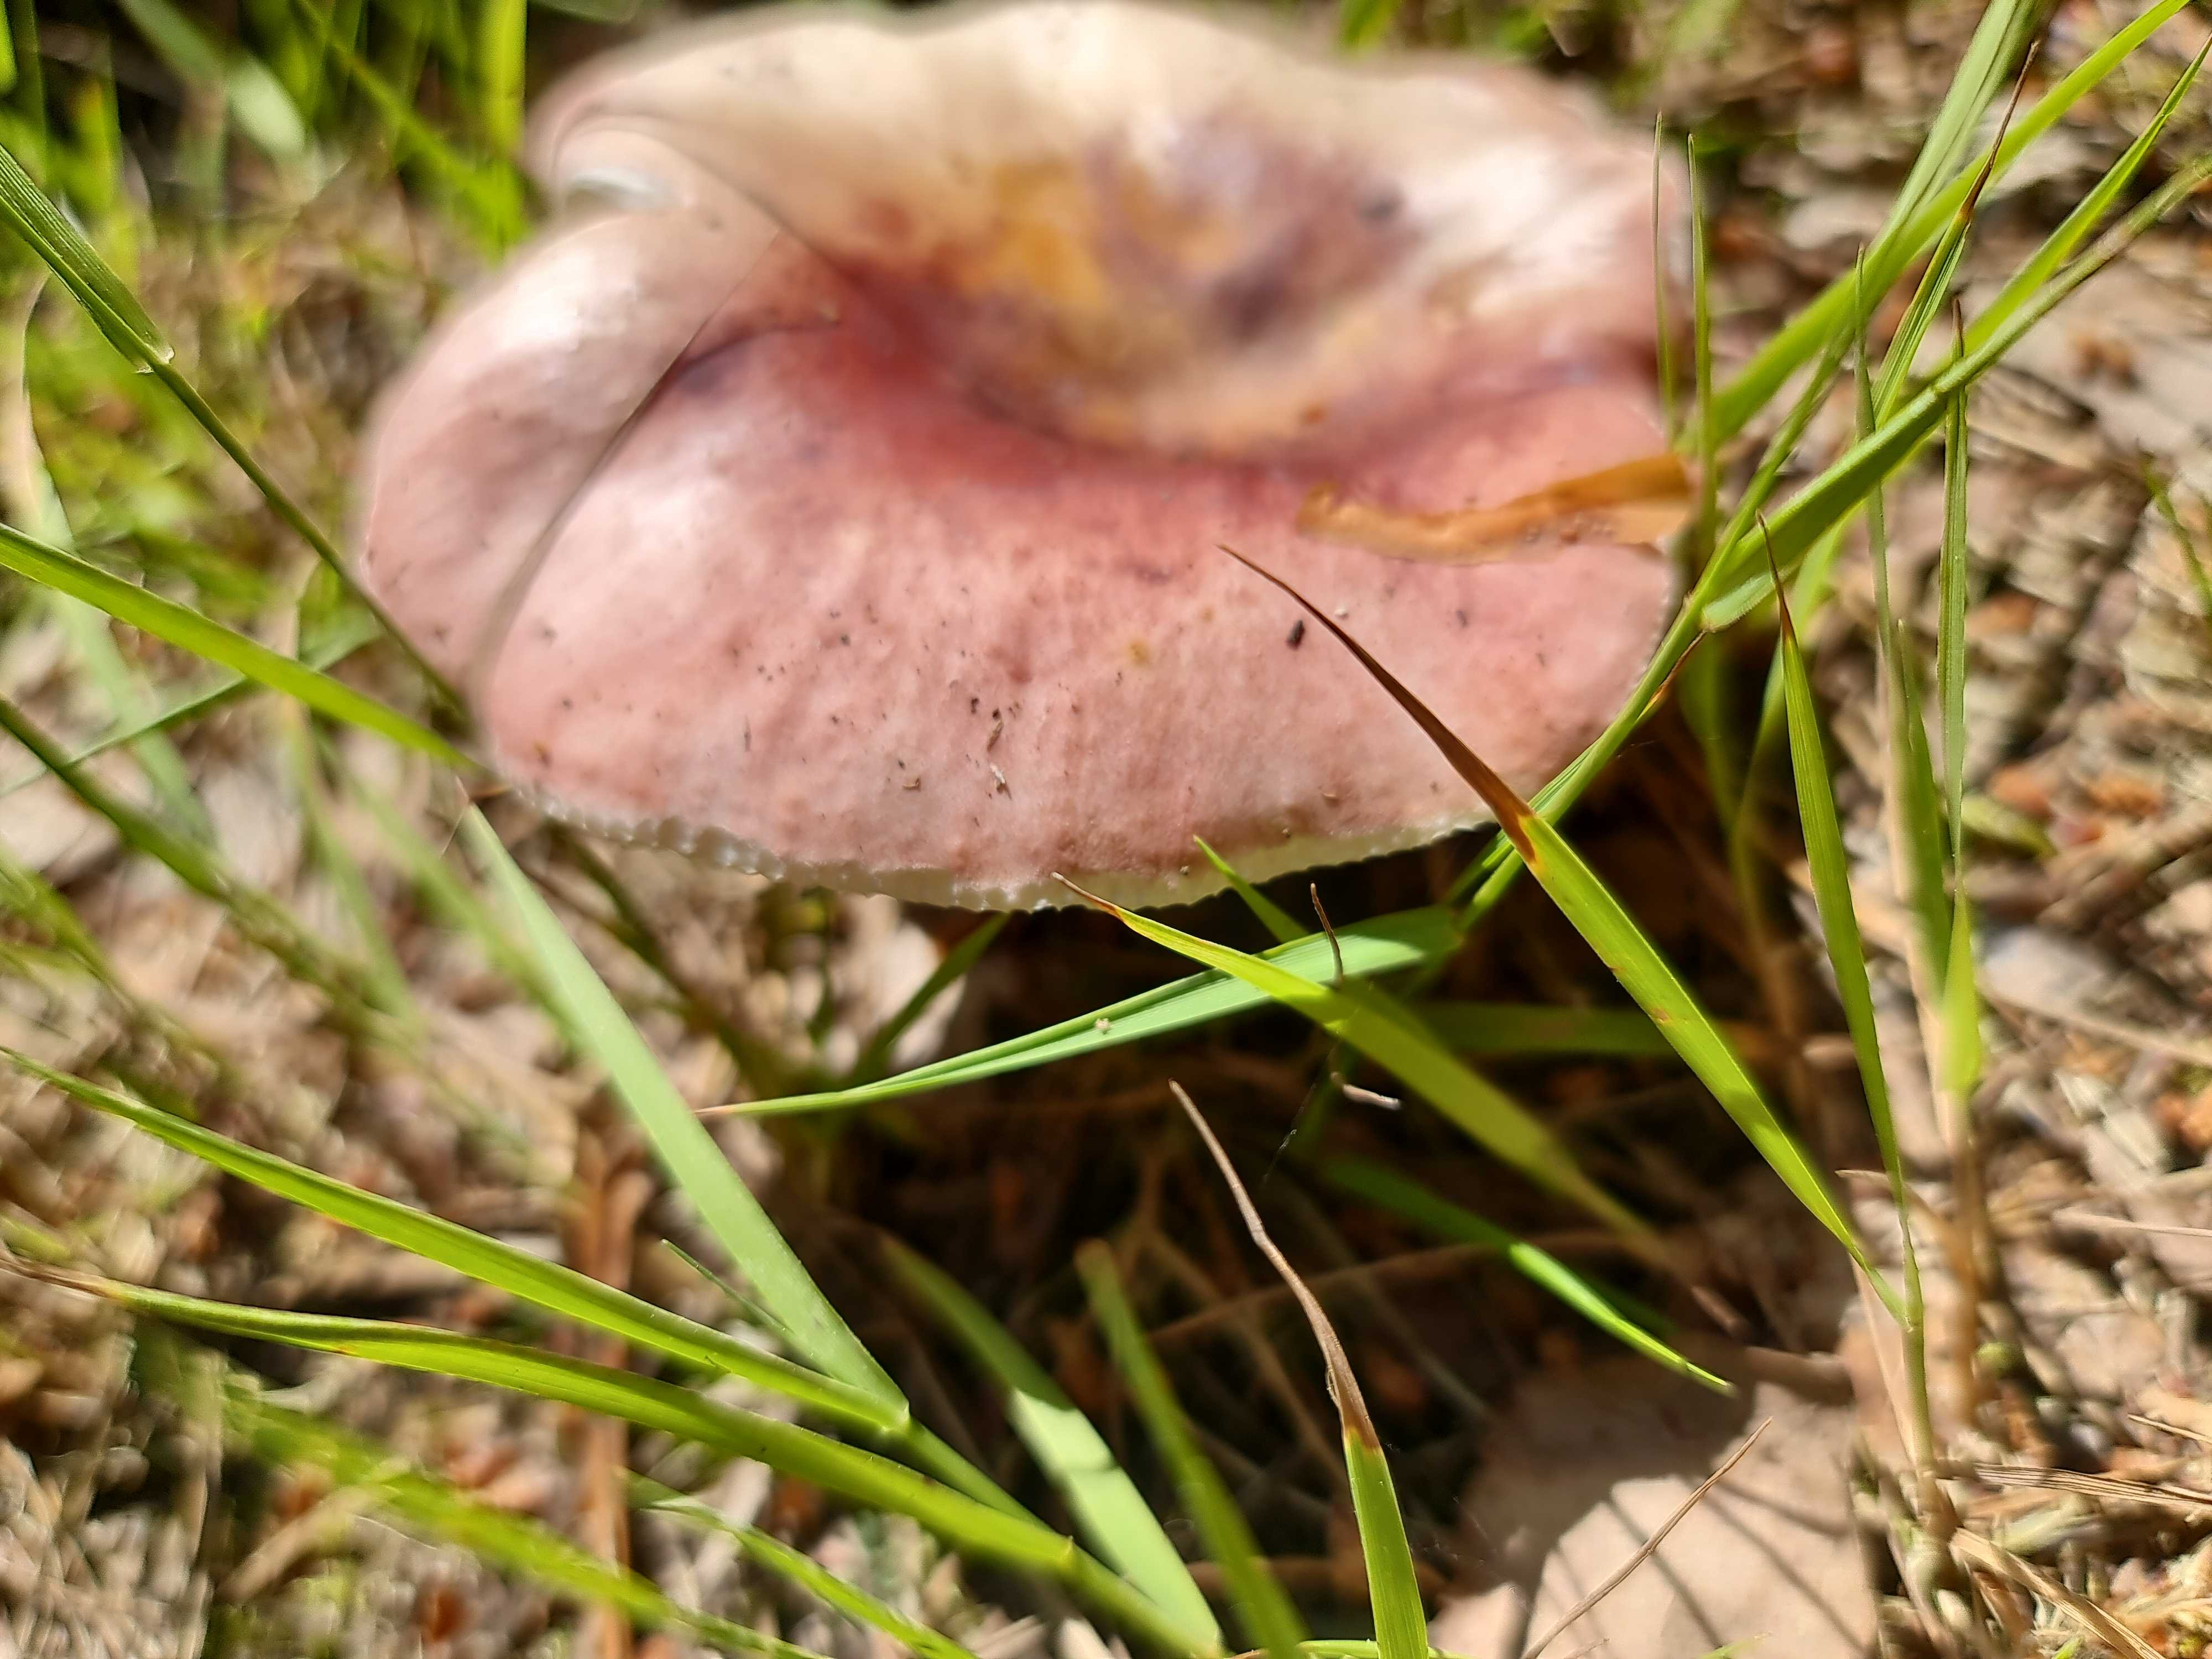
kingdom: Fungi
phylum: Basidiomycota
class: Agaricomycetes
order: Russulales
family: Russulaceae
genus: Russula
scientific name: Russula
